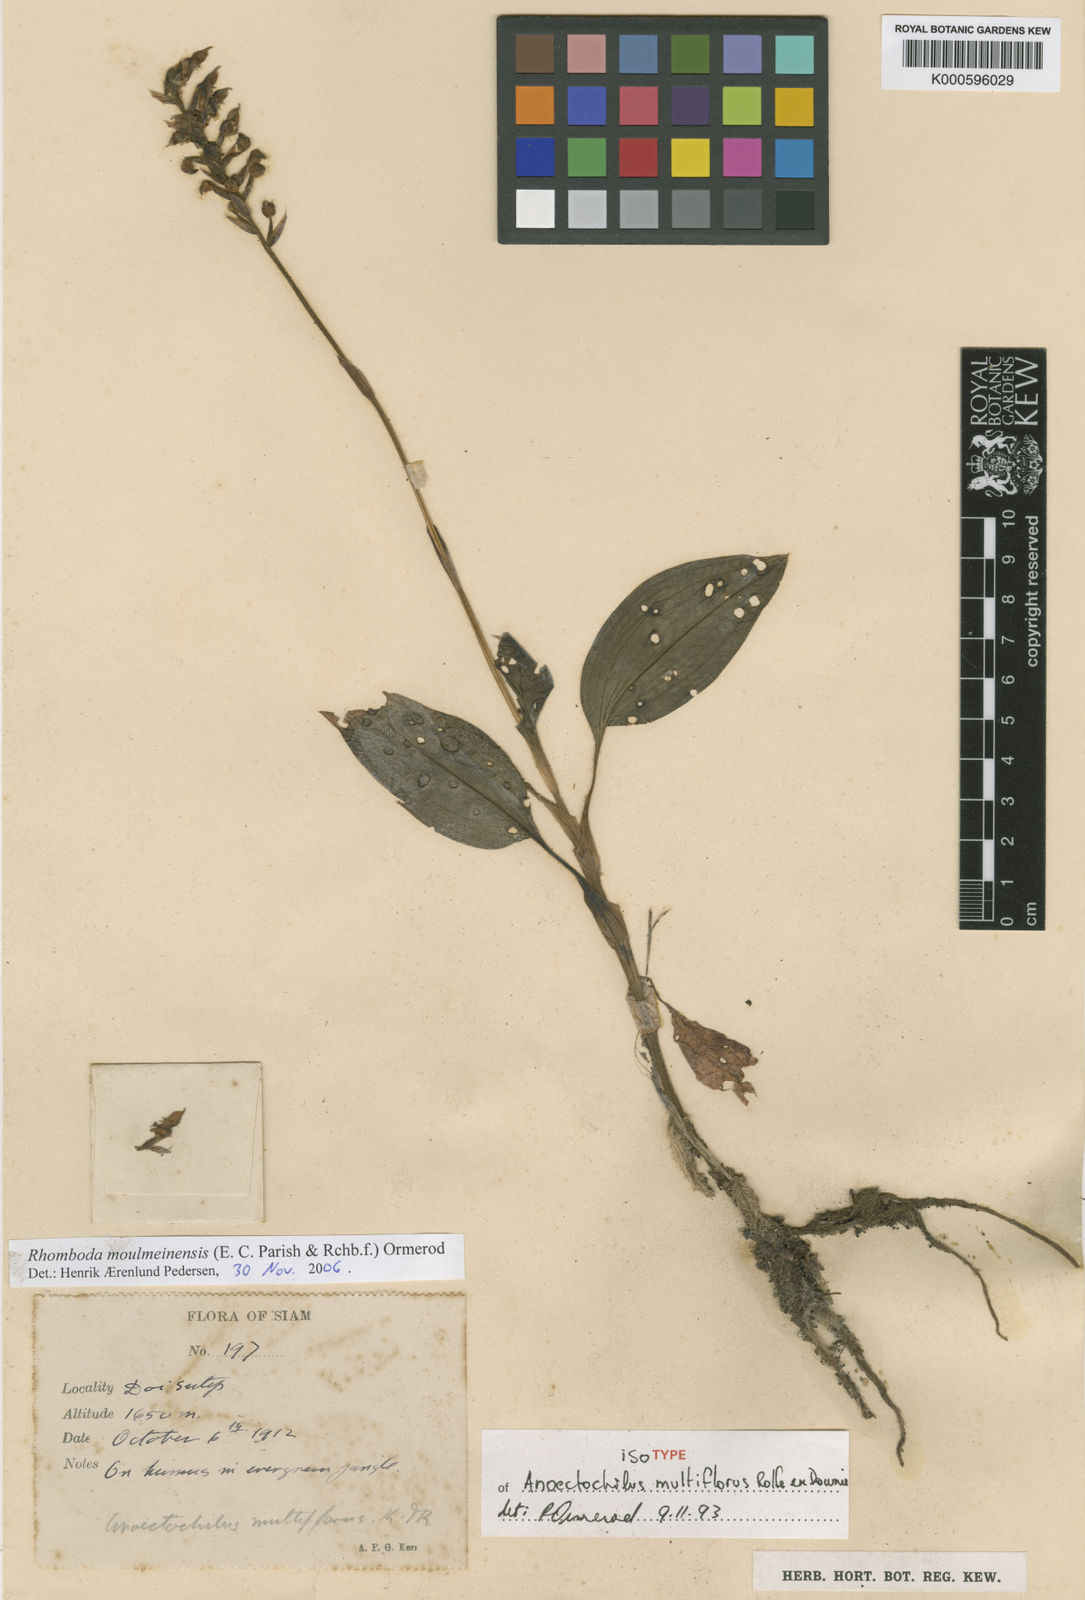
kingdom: Plantae
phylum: Tracheophyta
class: Liliopsida
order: Asparagales
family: Orchidaceae
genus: Rhomboda
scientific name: Rhomboda moulmeinensis
